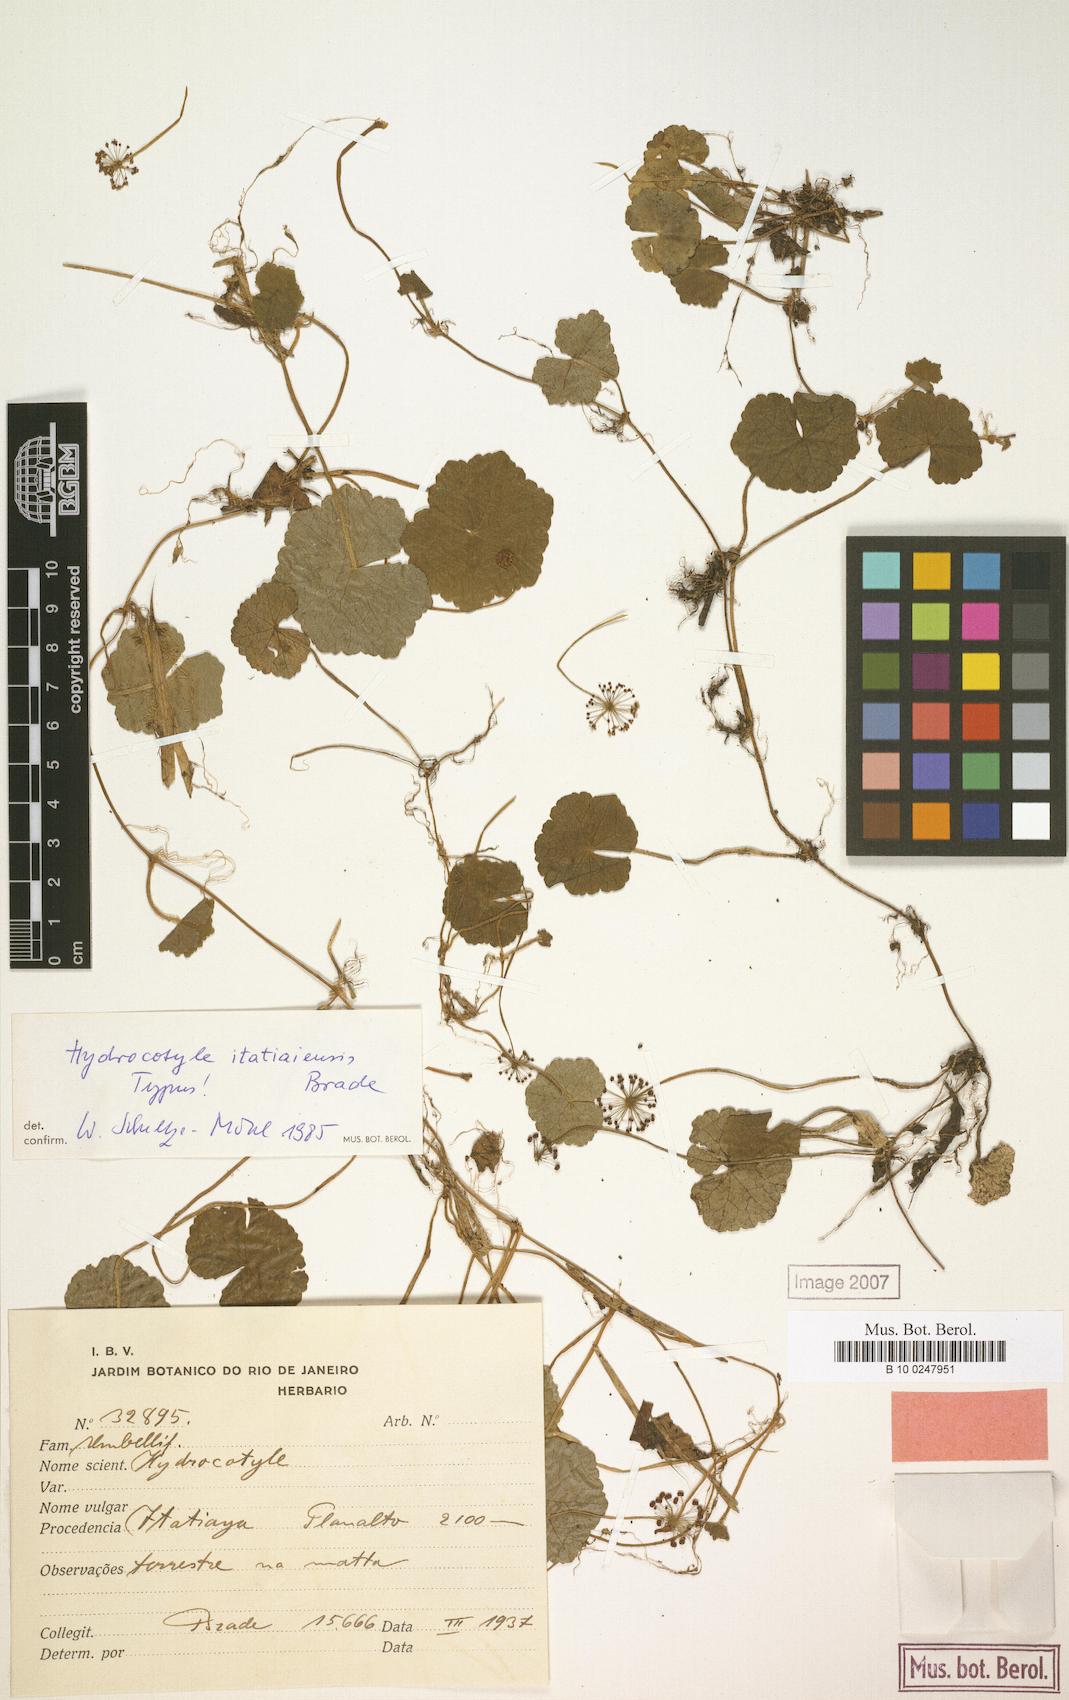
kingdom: Plantae
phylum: Tracheophyta
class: Magnoliopsida
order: Apiales
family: Araliaceae
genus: Hydrocotyle
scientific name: Hydrocotyle itatiaiensis
